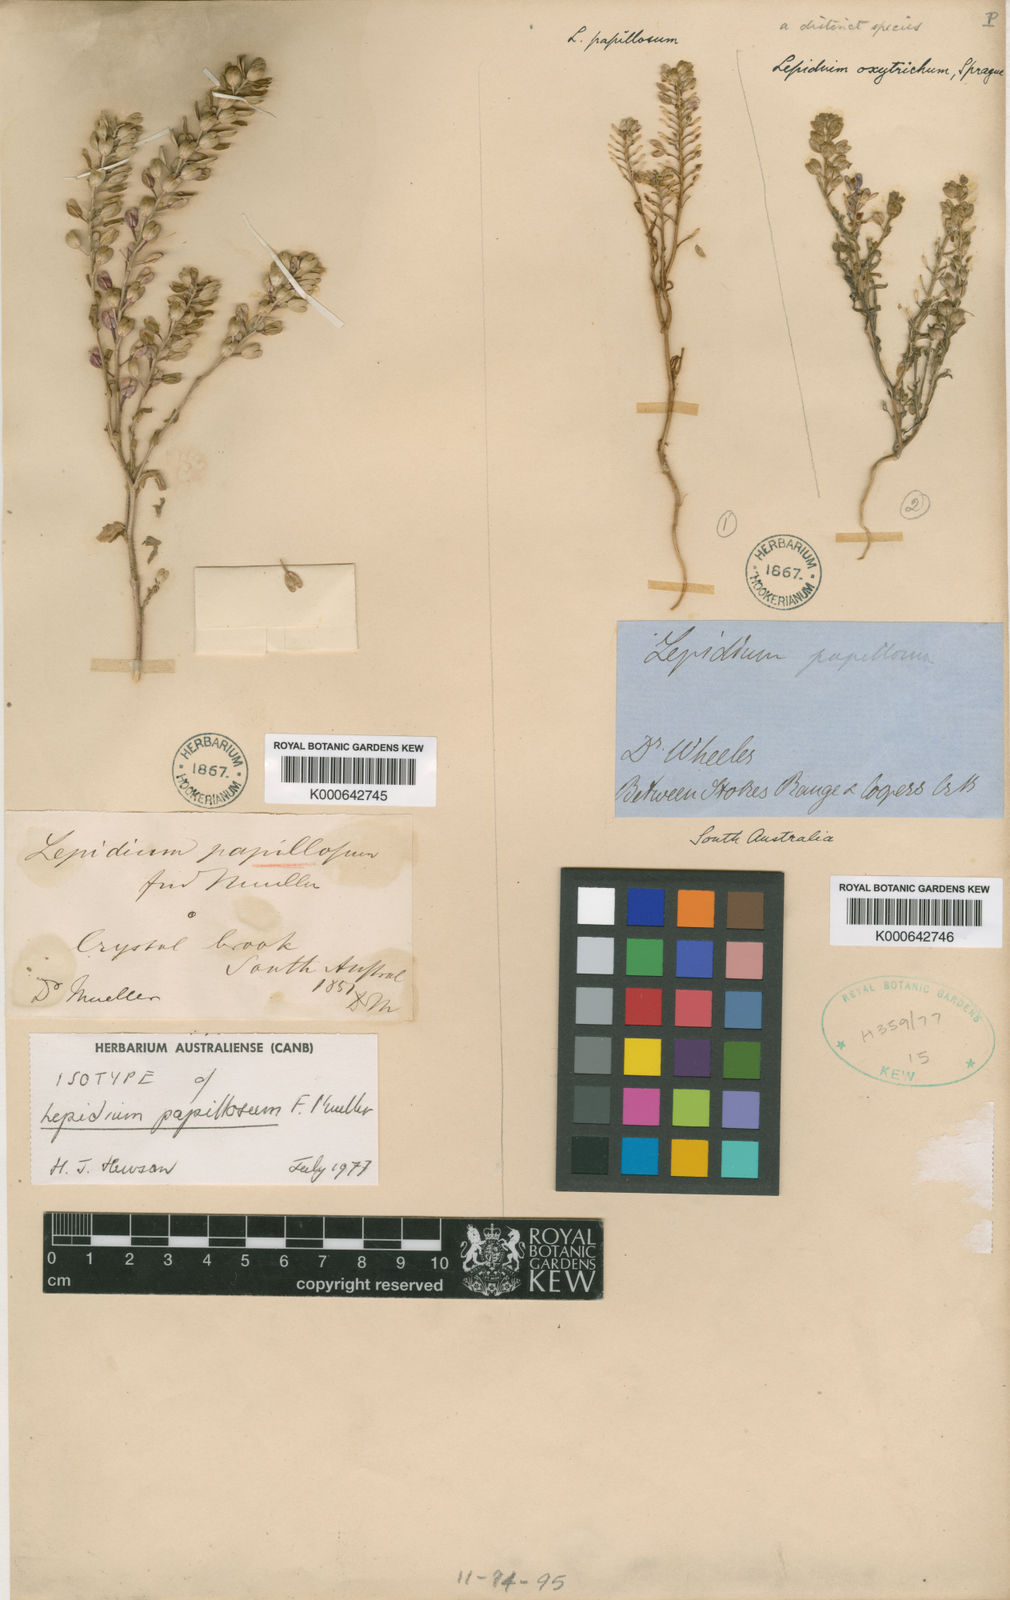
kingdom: Plantae
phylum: Tracheophyta
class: Magnoliopsida
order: Brassicales
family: Brassicaceae
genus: Lepidium
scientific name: Lepidium papillosum
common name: Warty pepperwort
